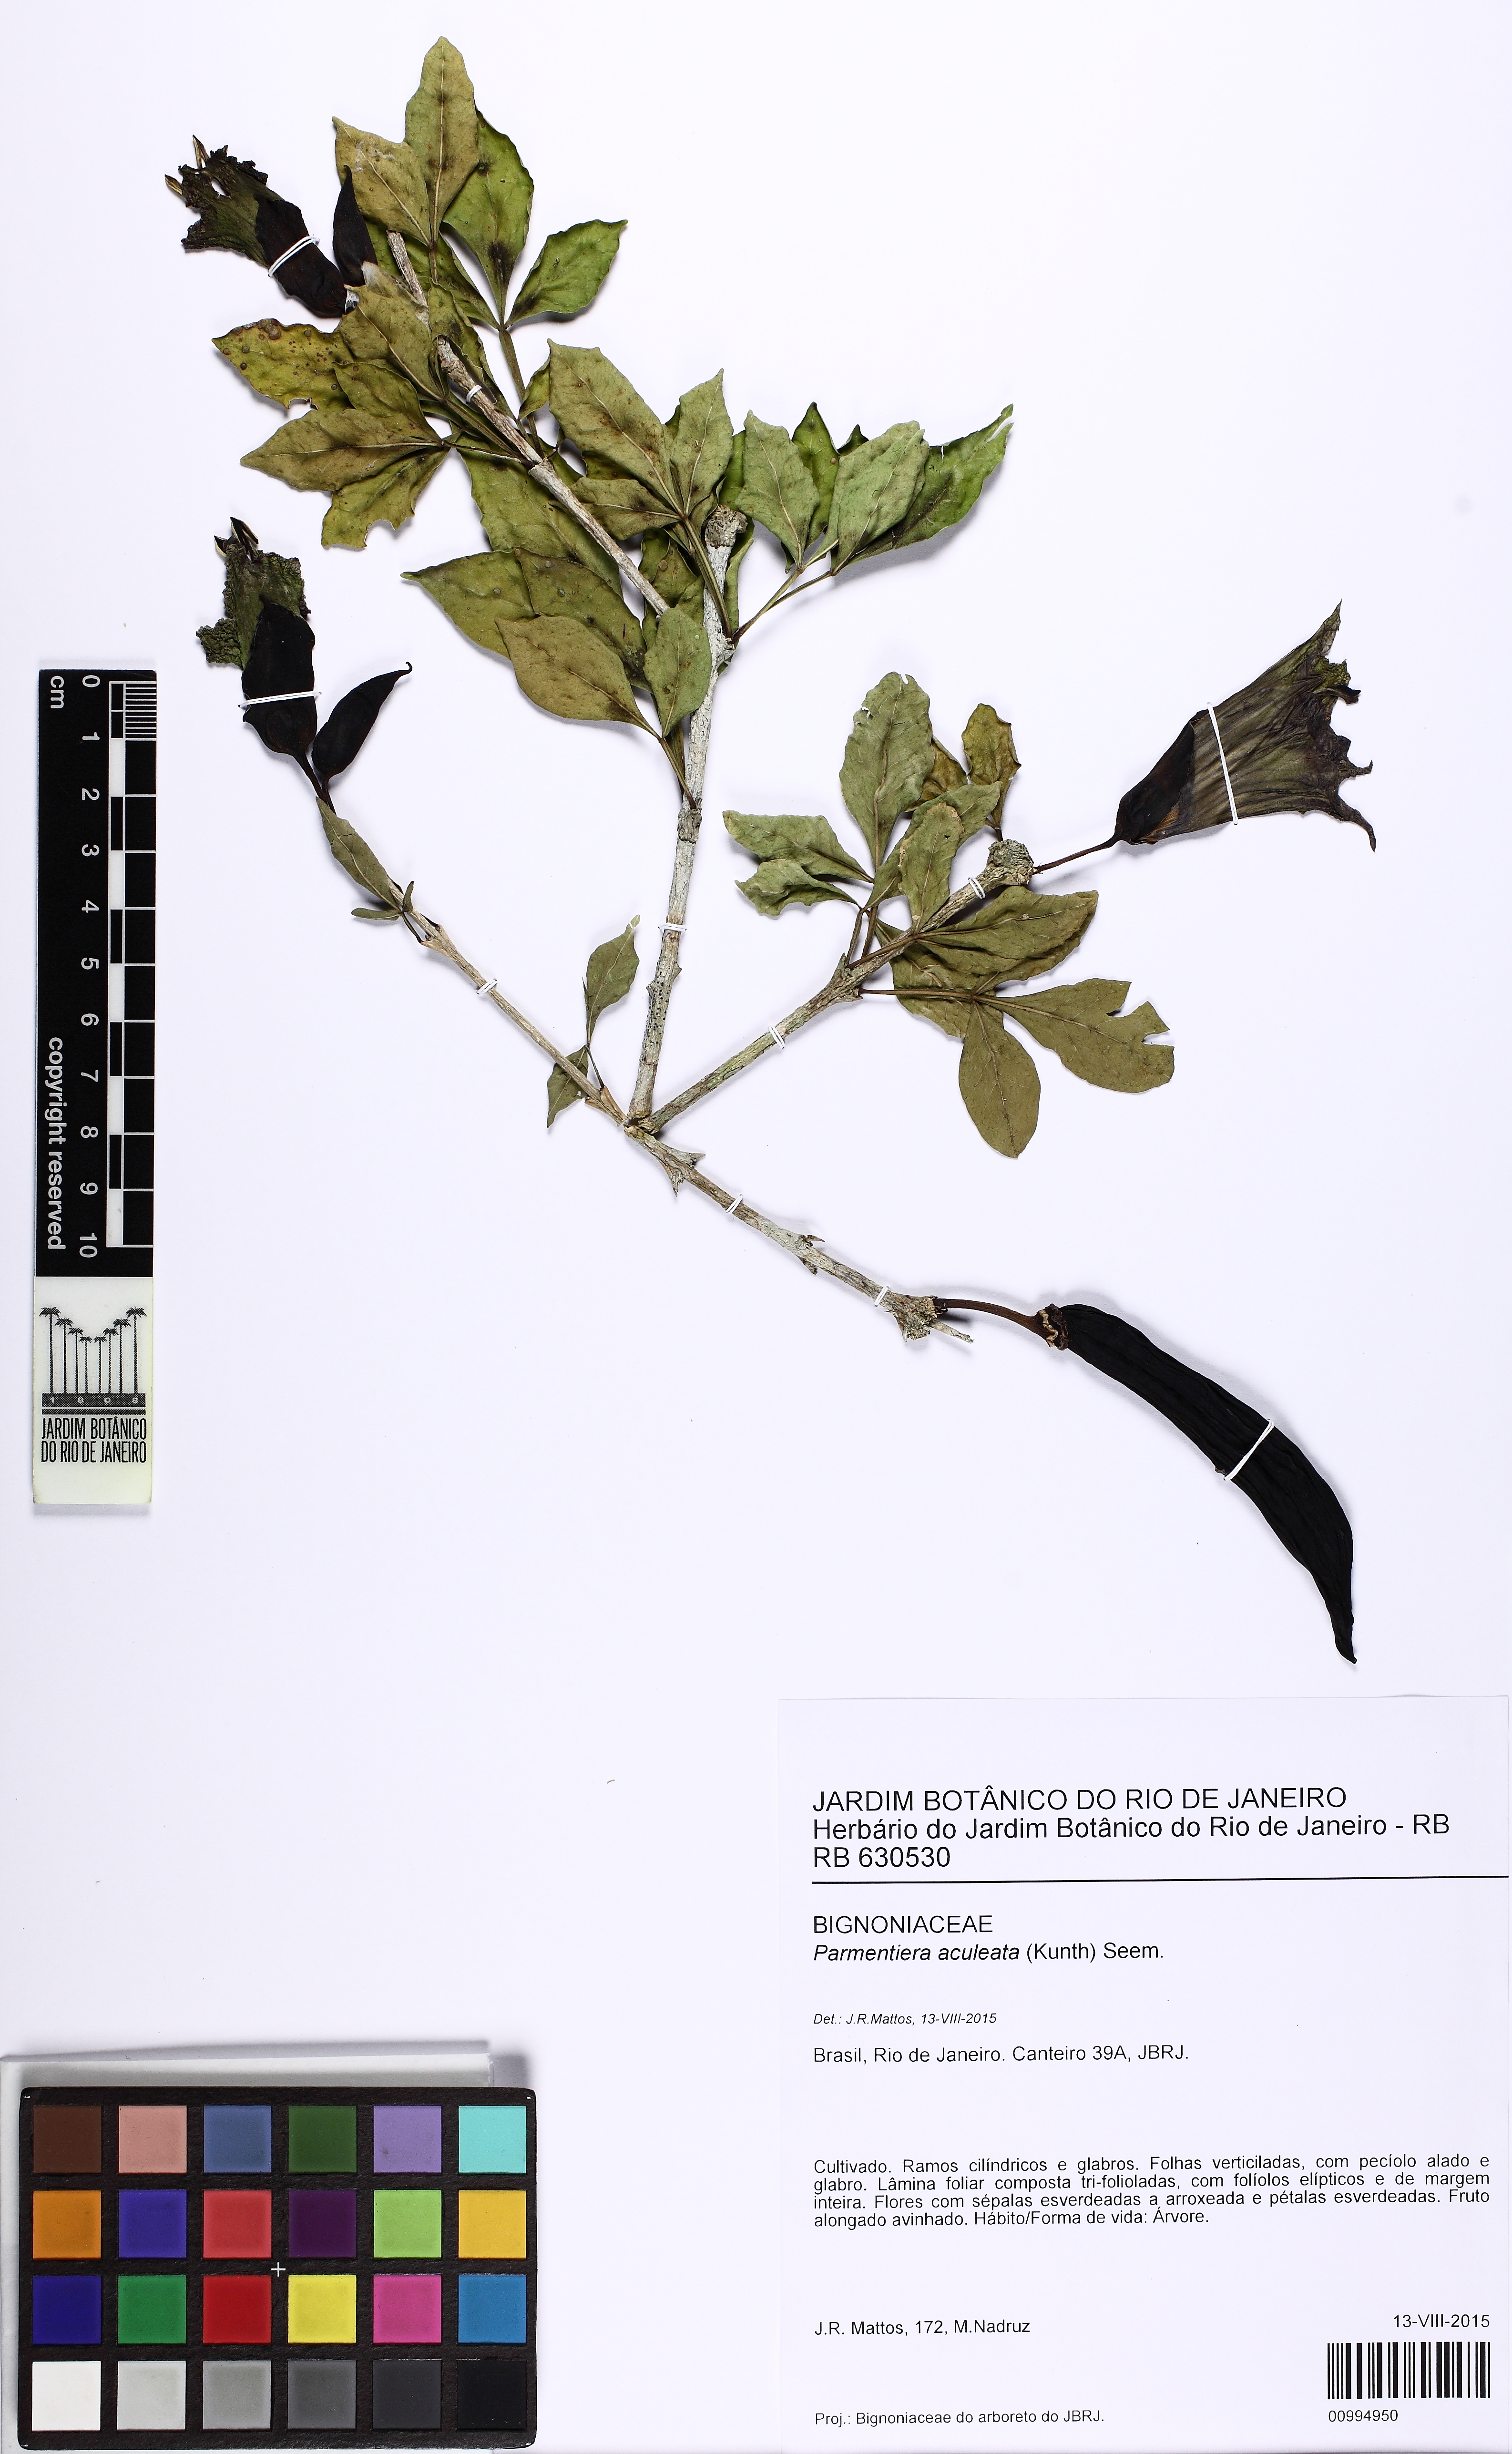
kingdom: Plantae
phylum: Tracheophyta
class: Magnoliopsida
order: Lamiales
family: Bignoniaceae
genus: Parmentiera
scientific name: Parmentiera aculeata
